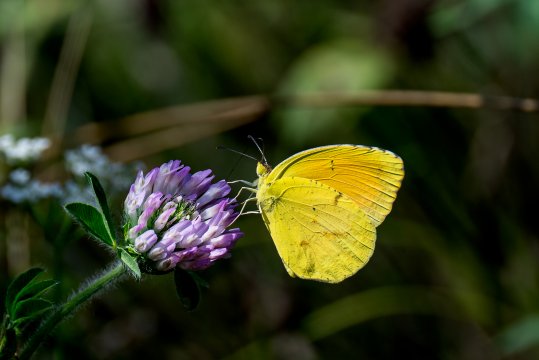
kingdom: Animalia
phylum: Arthropoda
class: Insecta
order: Lepidoptera
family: Pieridae
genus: Abaeis
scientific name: Abaeis nicippe
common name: Sleepy Orange
